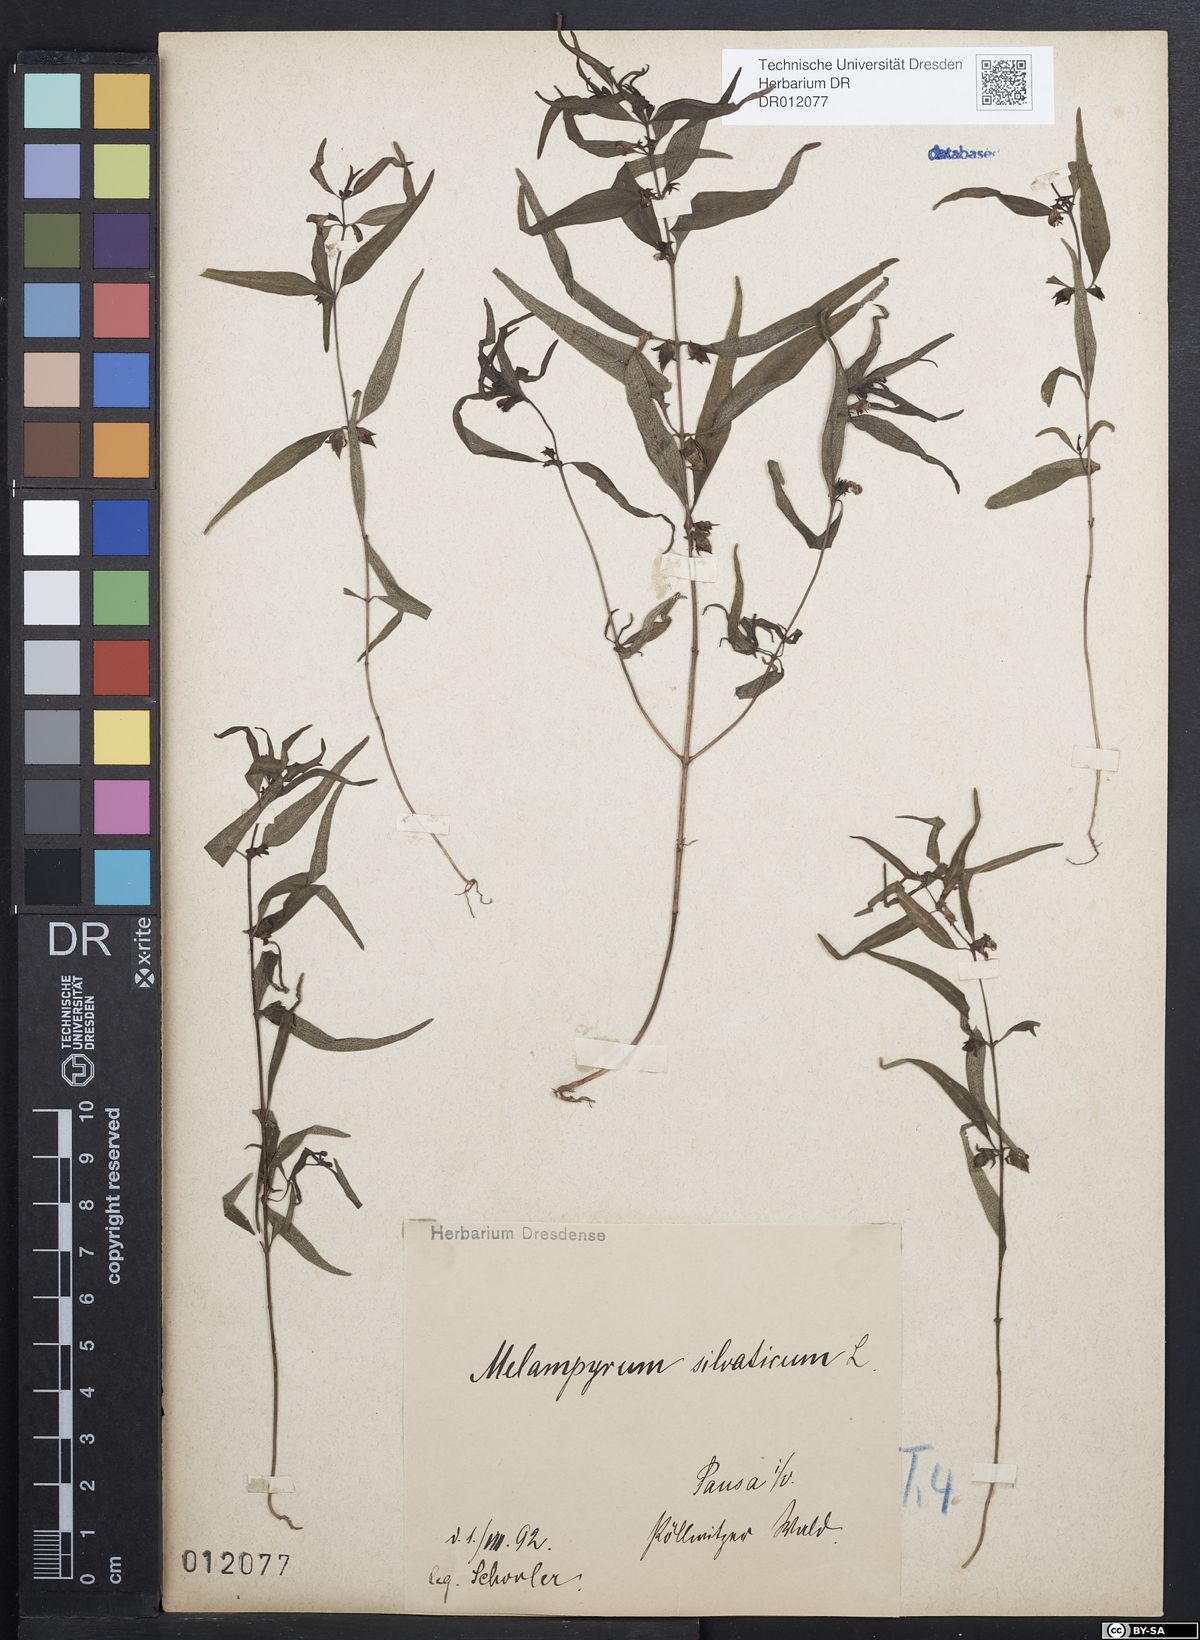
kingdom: Plantae
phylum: Tracheophyta
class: Magnoliopsida
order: Lamiales
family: Orobanchaceae
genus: Melampyrum
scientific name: Melampyrum sylvaticum
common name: Small cow-wheat
